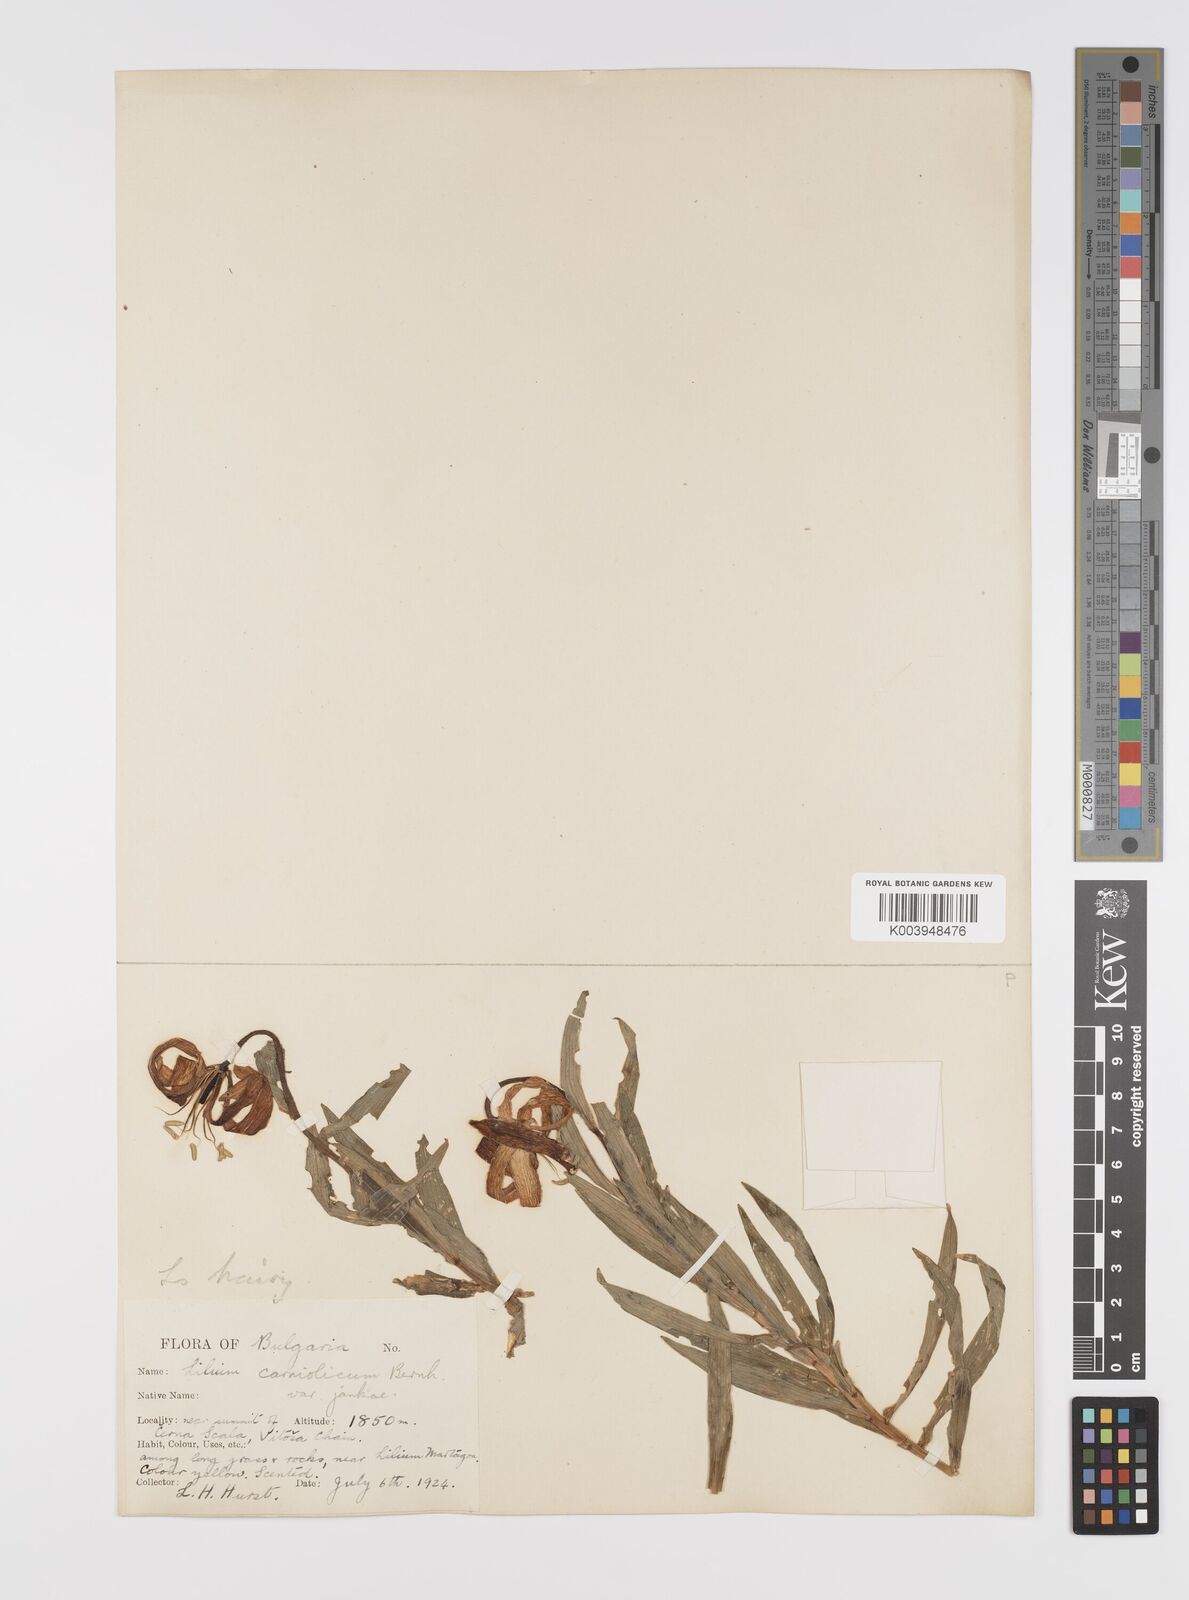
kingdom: Plantae
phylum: Tracheophyta
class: Liliopsida
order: Liliales
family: Liliaceae
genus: Lilium
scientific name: Lilium jankae
